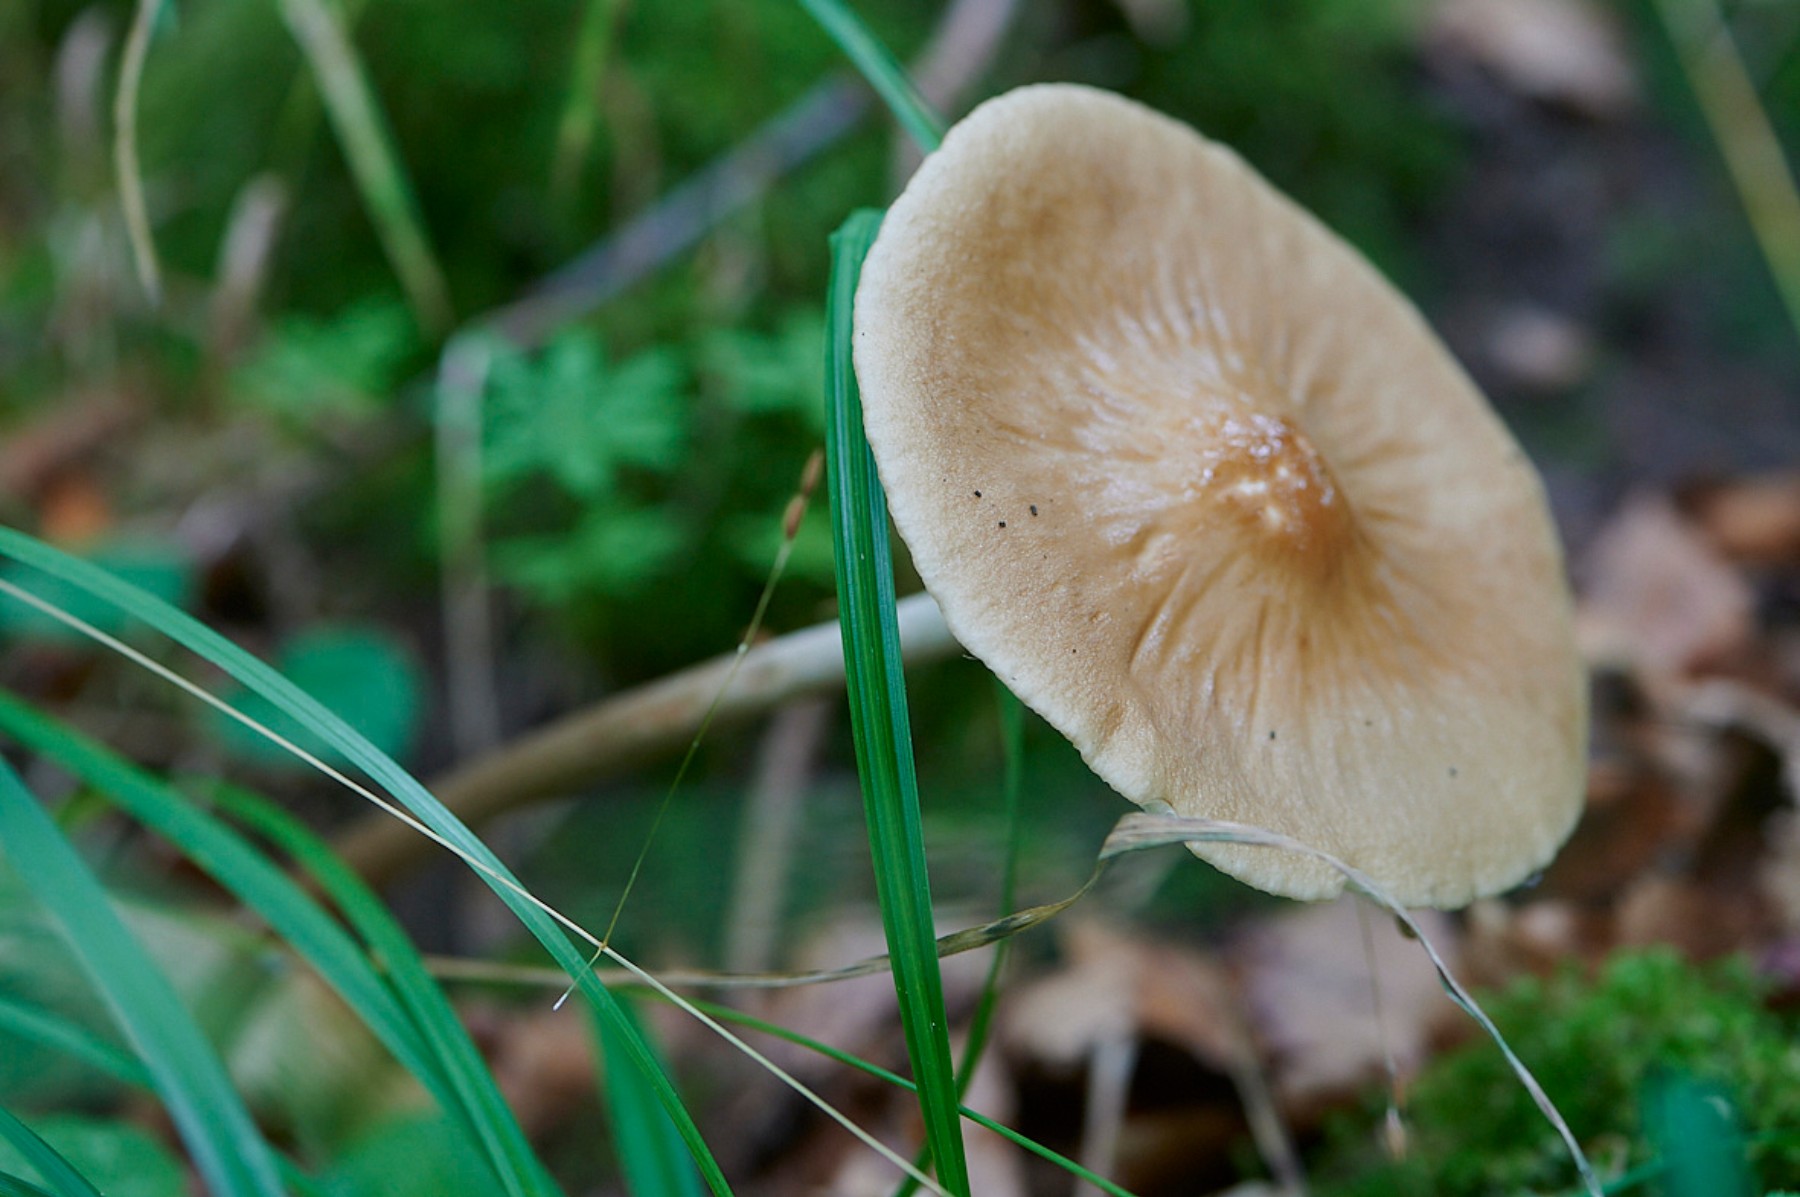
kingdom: Fungi
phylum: Basidiomycota
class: Agaricomycetes
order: Agaricales
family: Physalacriaceae
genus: Hymenopellis
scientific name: Hymenopellis radicata
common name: almindelig pælerodshat
